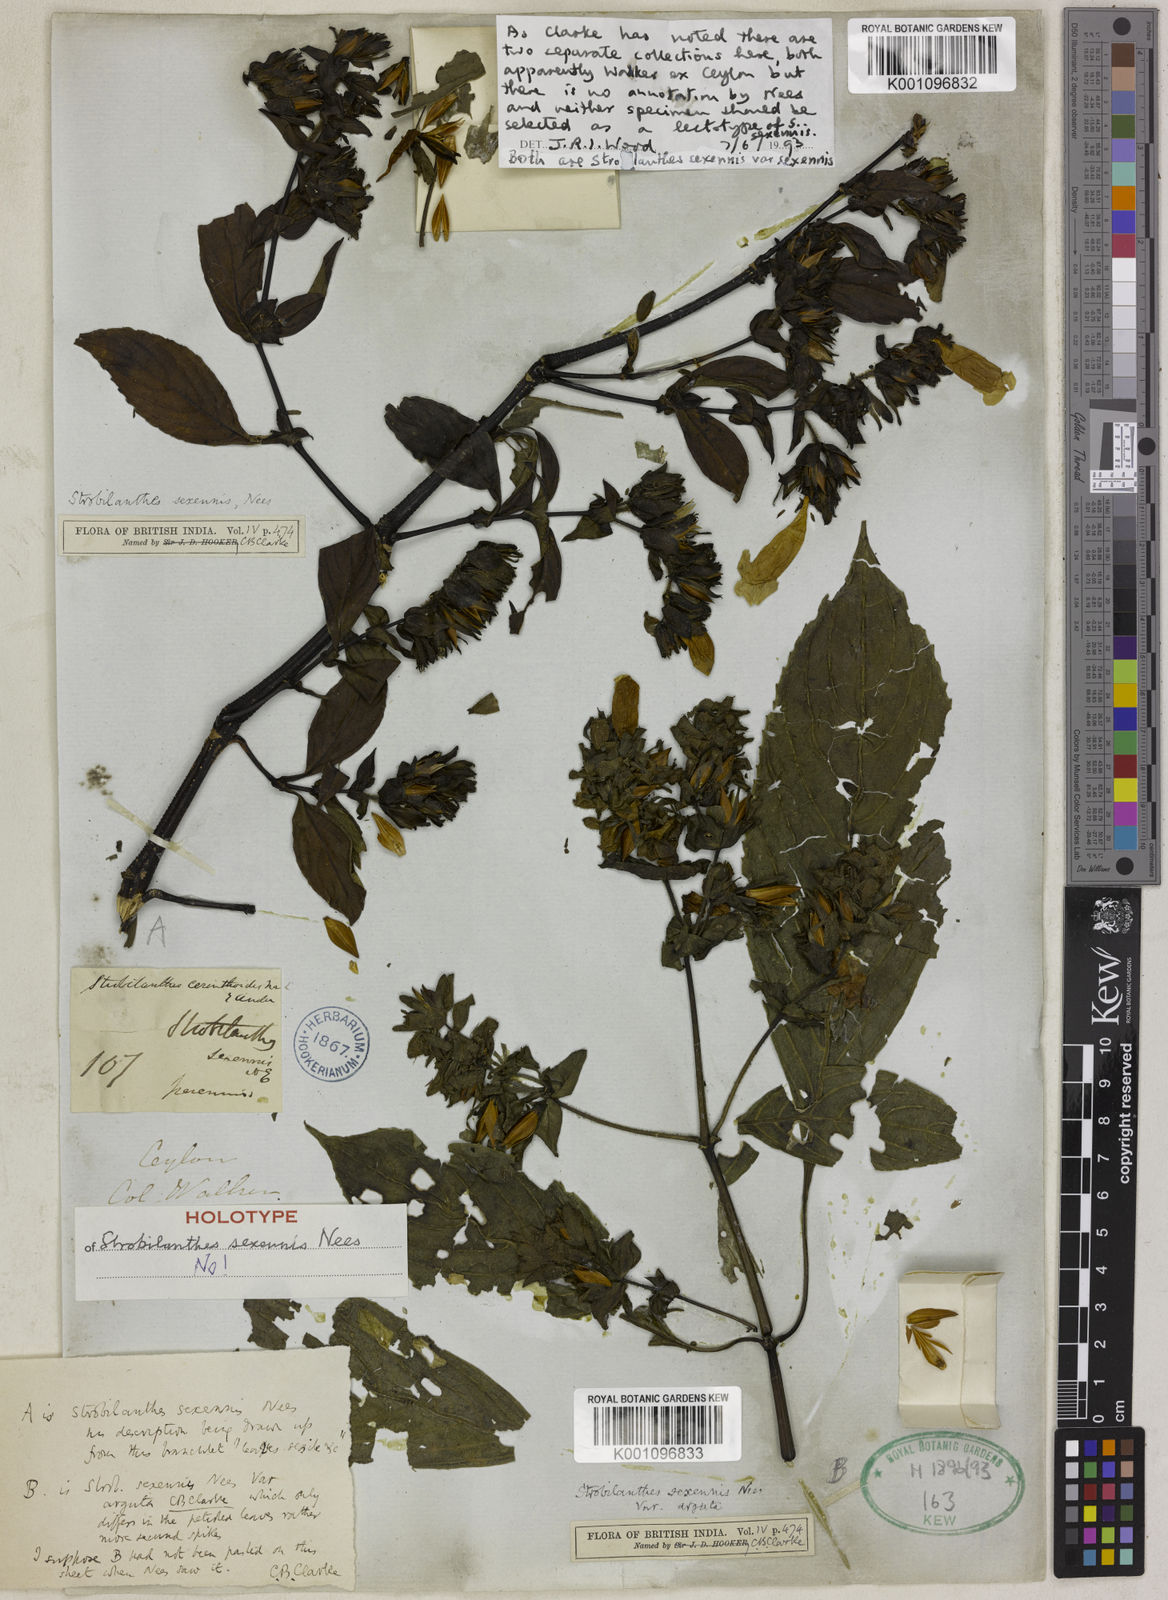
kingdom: Plantae
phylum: Tracheophyta
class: Magnoliopsida
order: Lamiales
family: Acanthaceae
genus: Strobilanthes
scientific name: Strobilanthes sexennis
